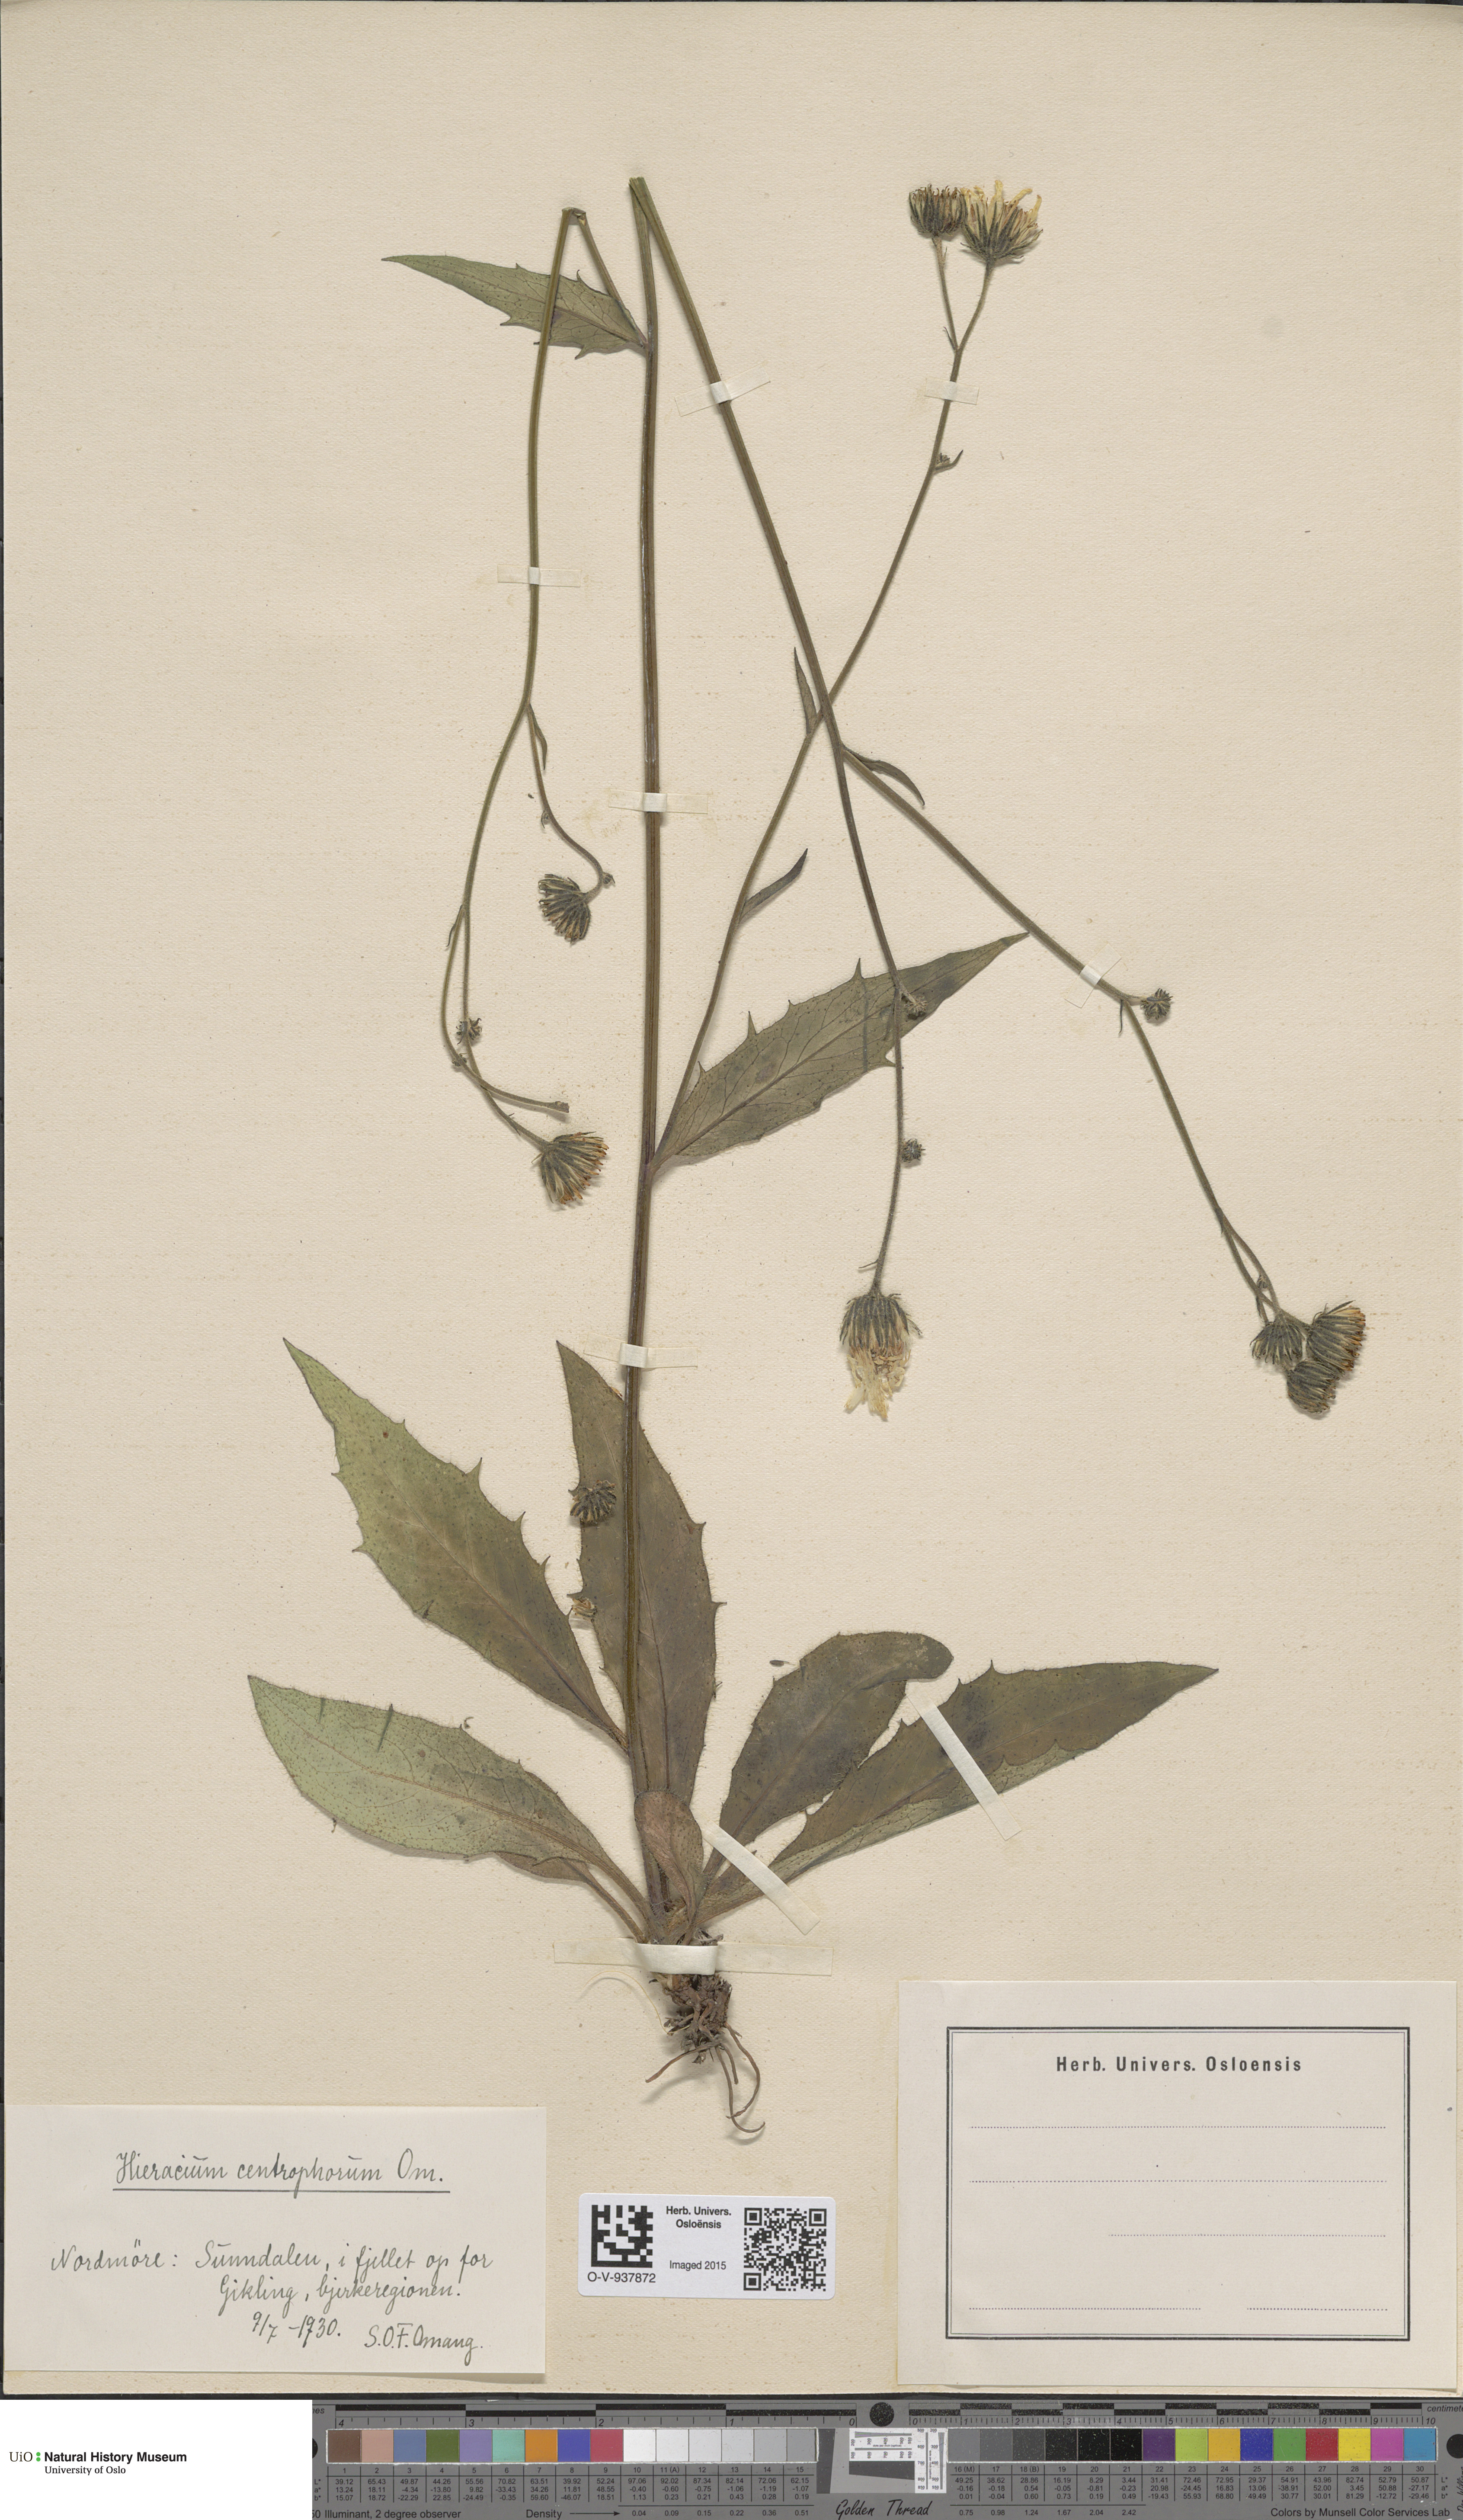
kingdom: Plantae
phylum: Tracheophyta
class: Magnoliopsida
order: Asterales
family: Asteraceae
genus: Hieracium
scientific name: Hieracium
